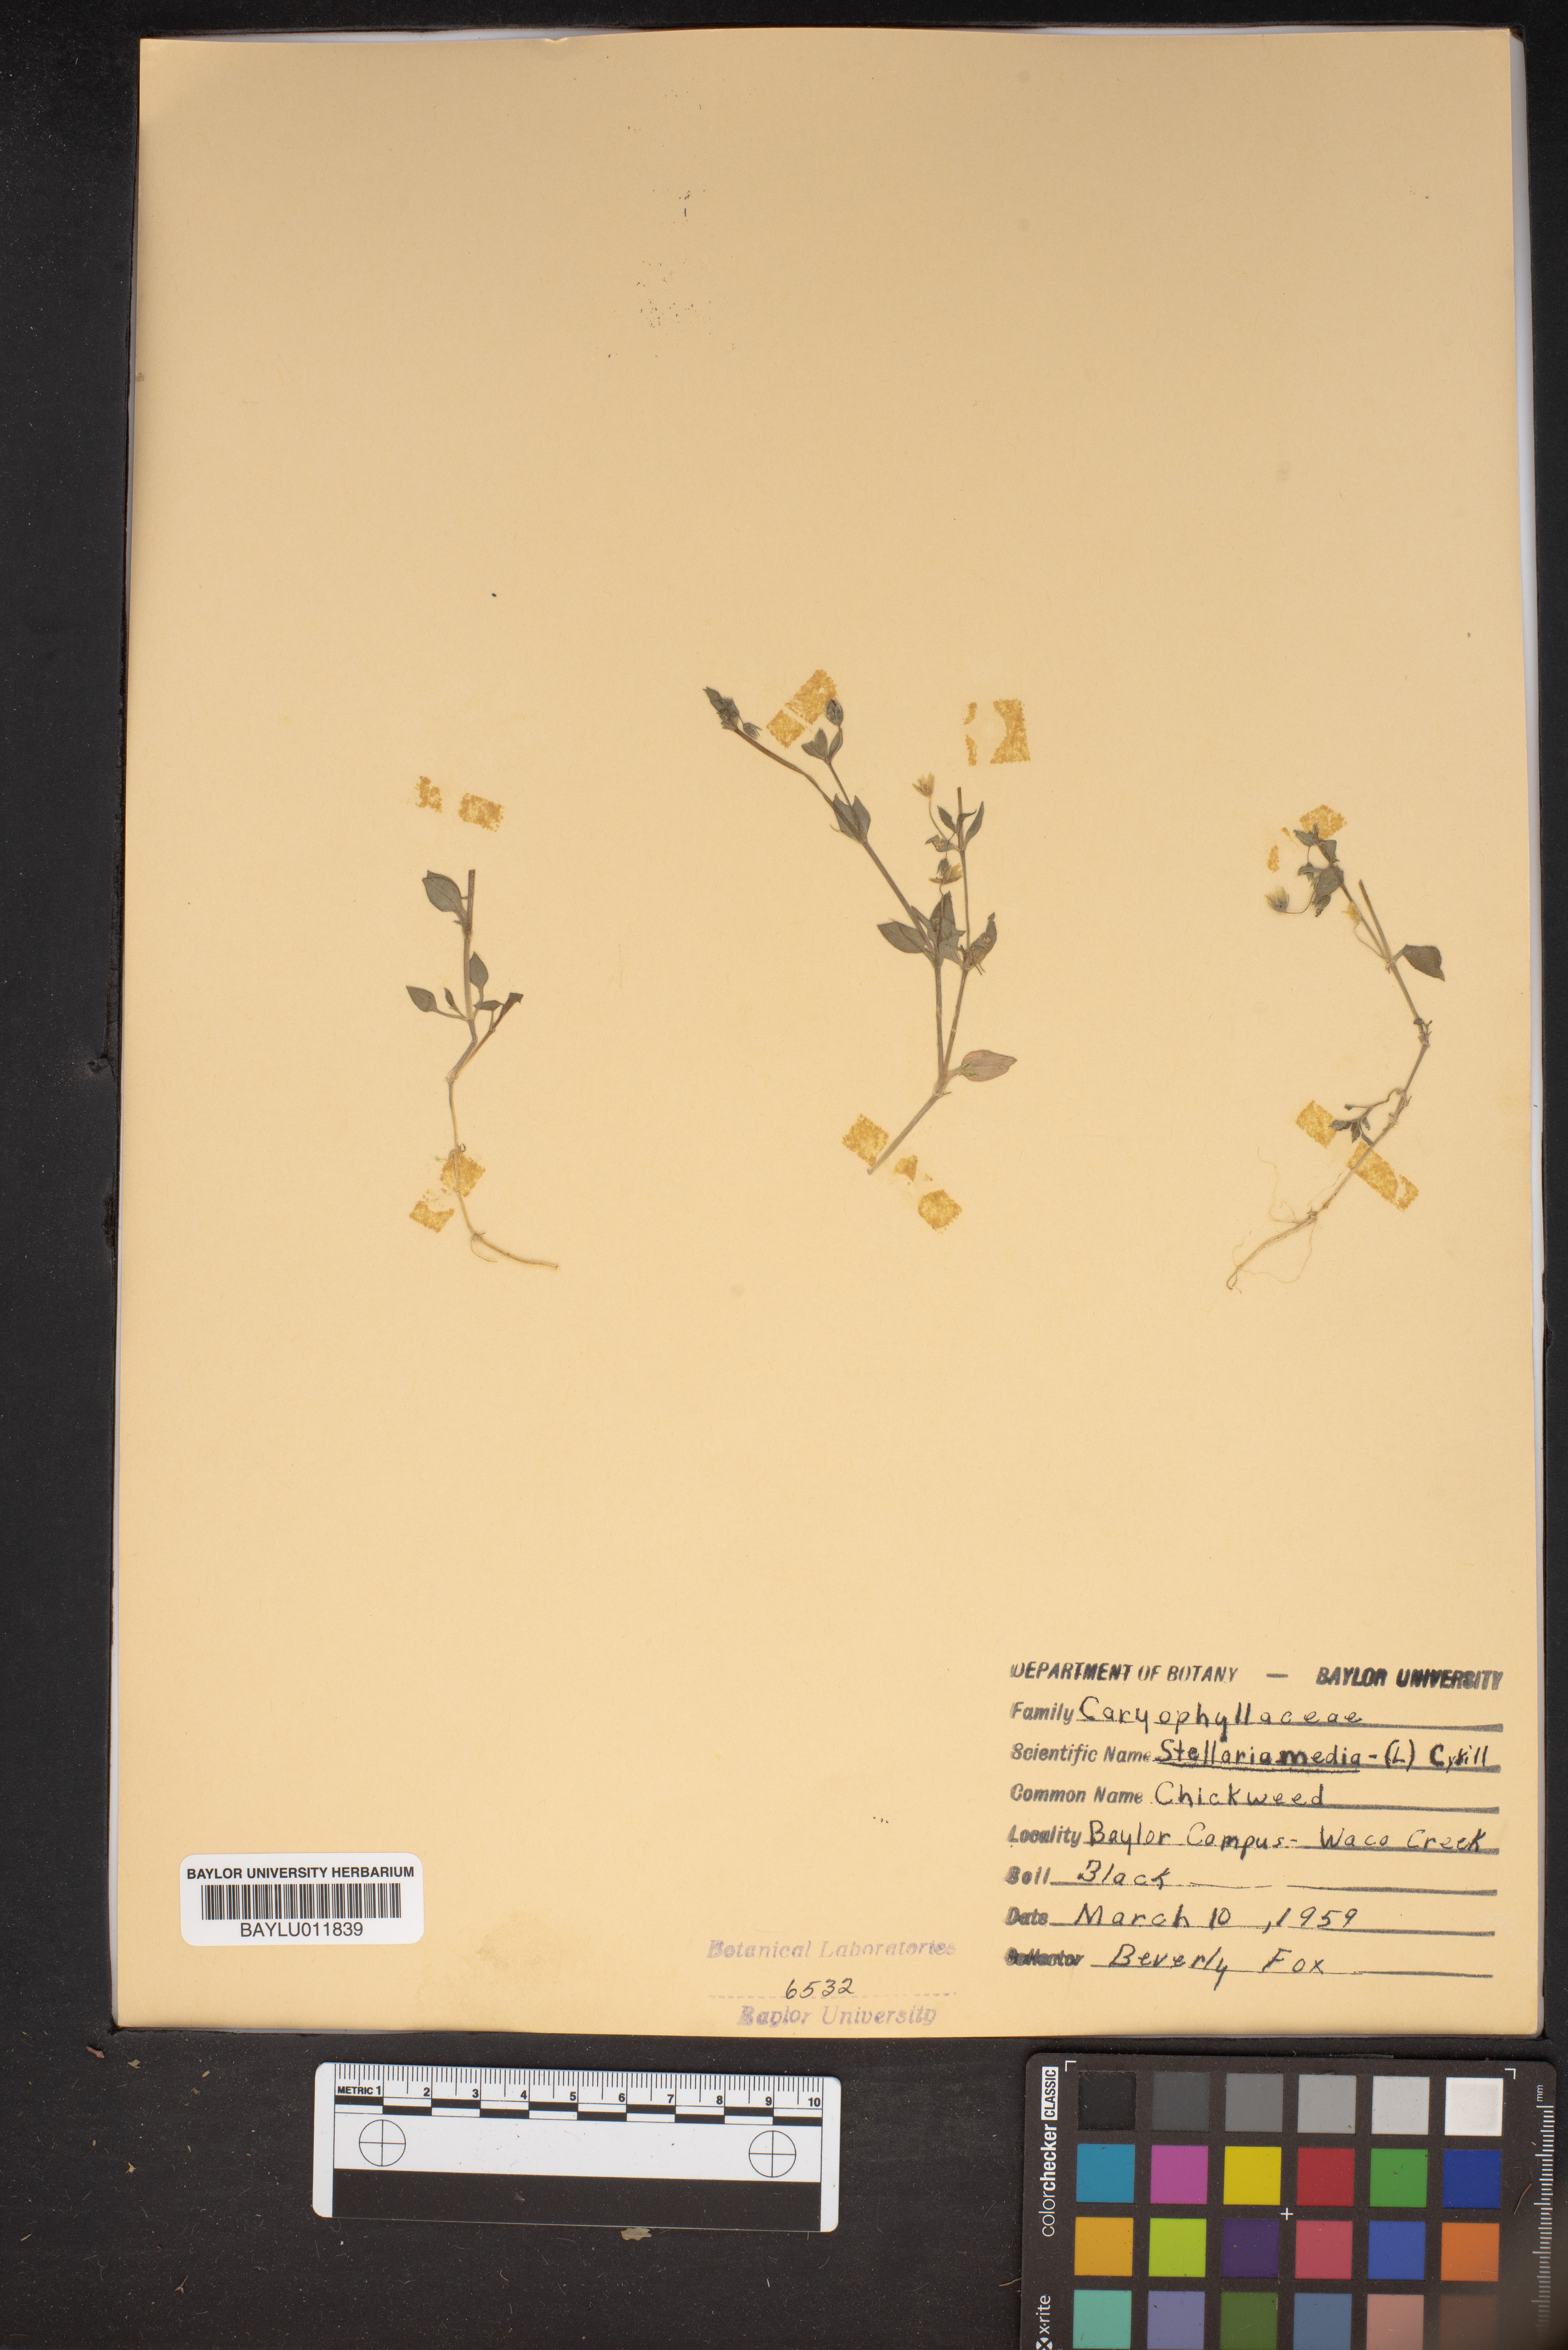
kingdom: Plantae
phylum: Tracheophyta
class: Magnoliopsida
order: Caryophyllales
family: Caryophyllaceae
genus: Stellaria
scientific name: Stellaria media
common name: Common chickweed
